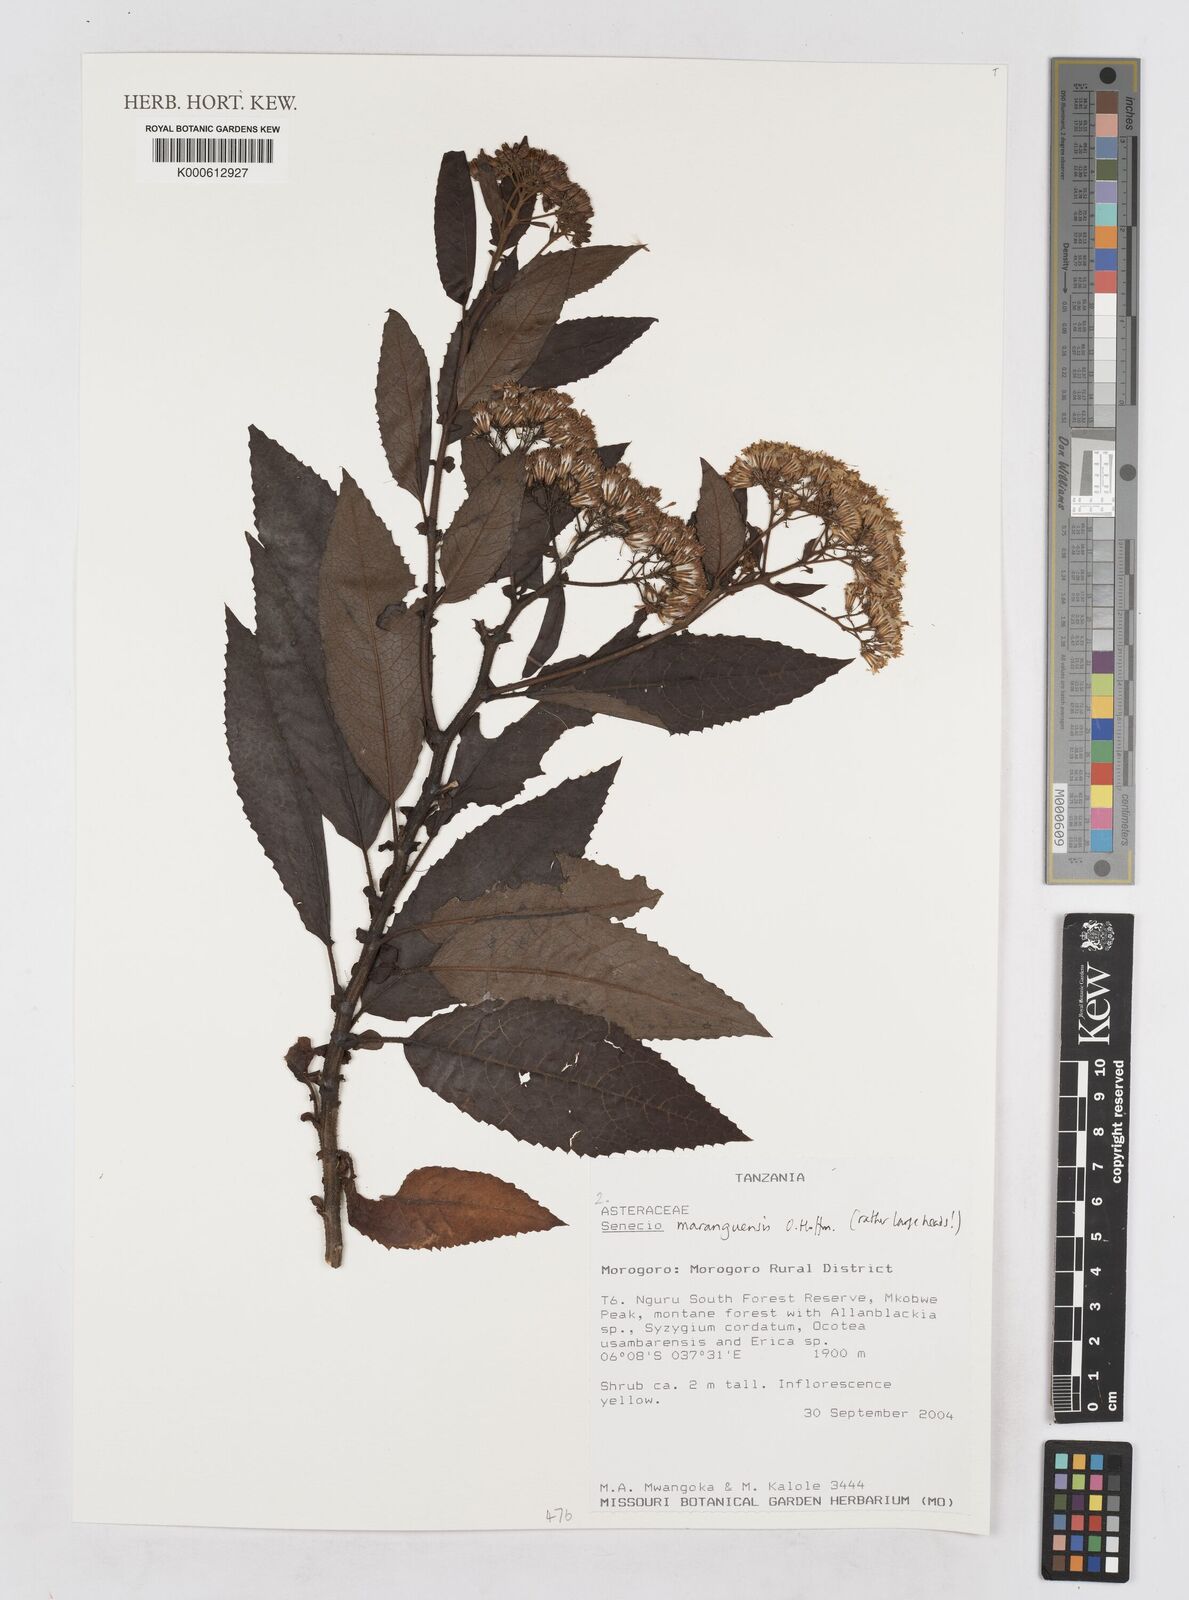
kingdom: Plantae
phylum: Tracheophyta
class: Magnoliopsida
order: Asterales
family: Asteraceae
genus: Senecio
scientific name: Senecio maranguensis
